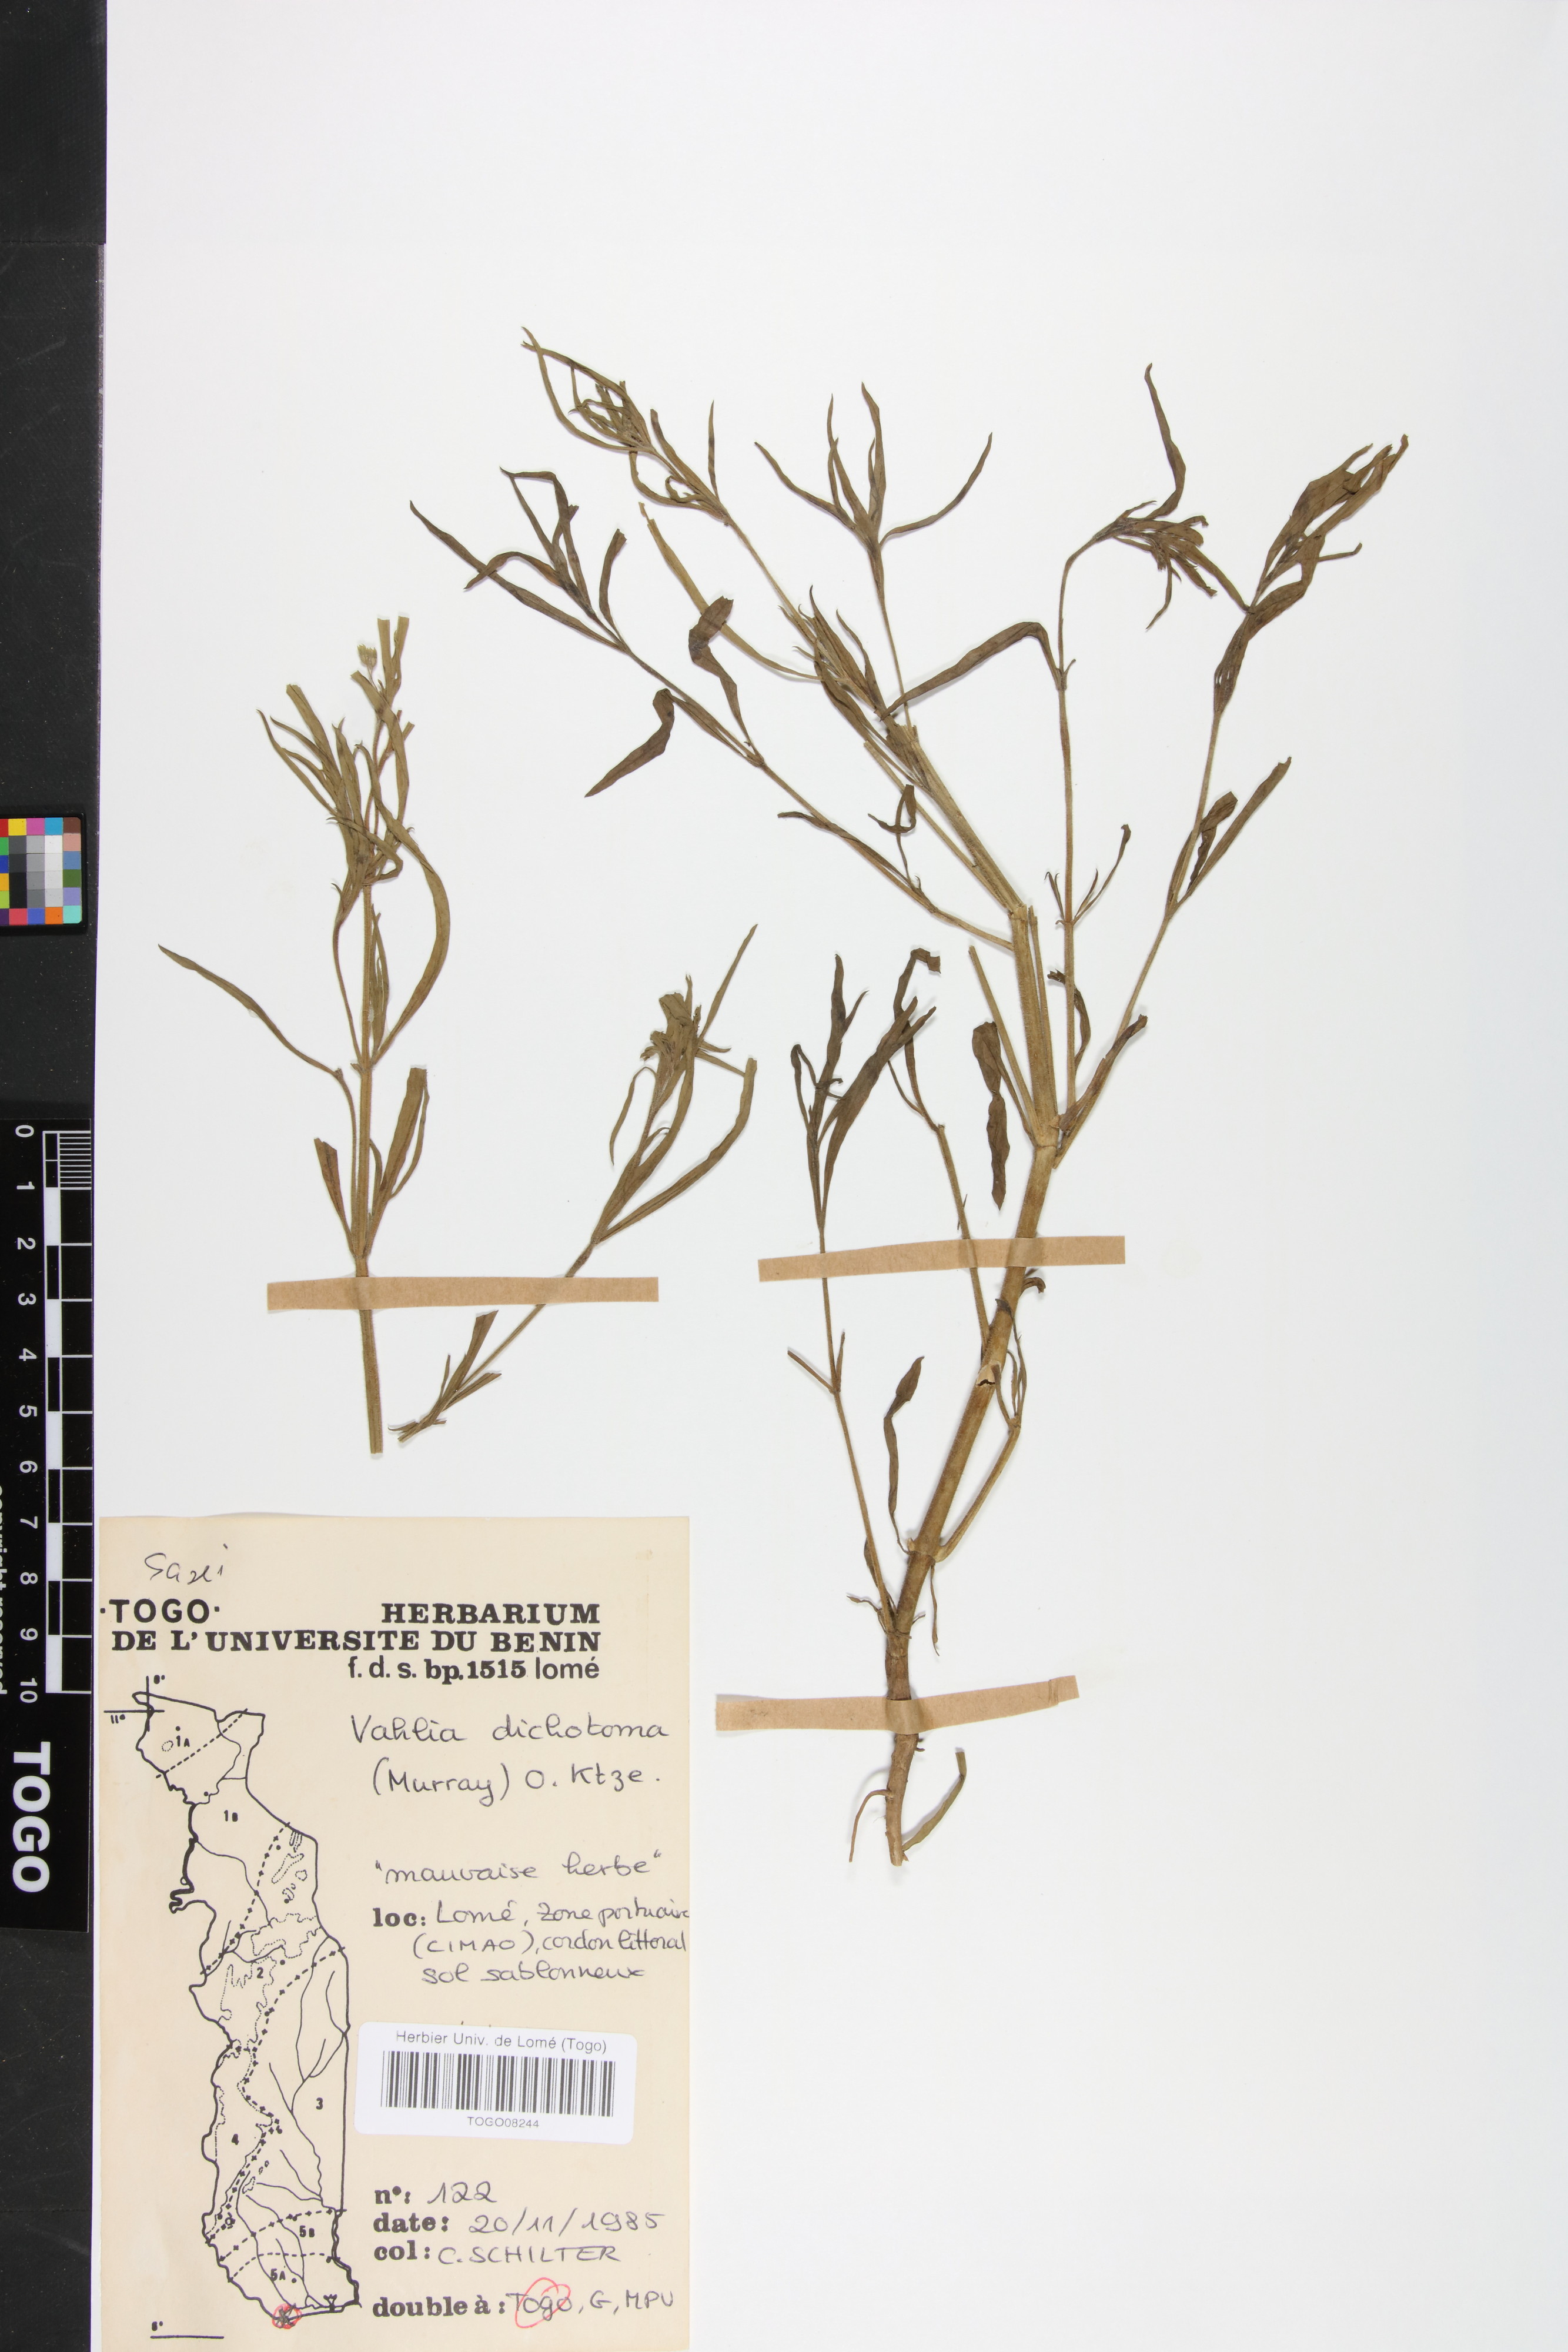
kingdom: Plantae
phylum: Tracheophyta
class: Magnoliopsida
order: Vahliales
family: Vahliaceae
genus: Vahlia
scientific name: Vahlia dichotoma
